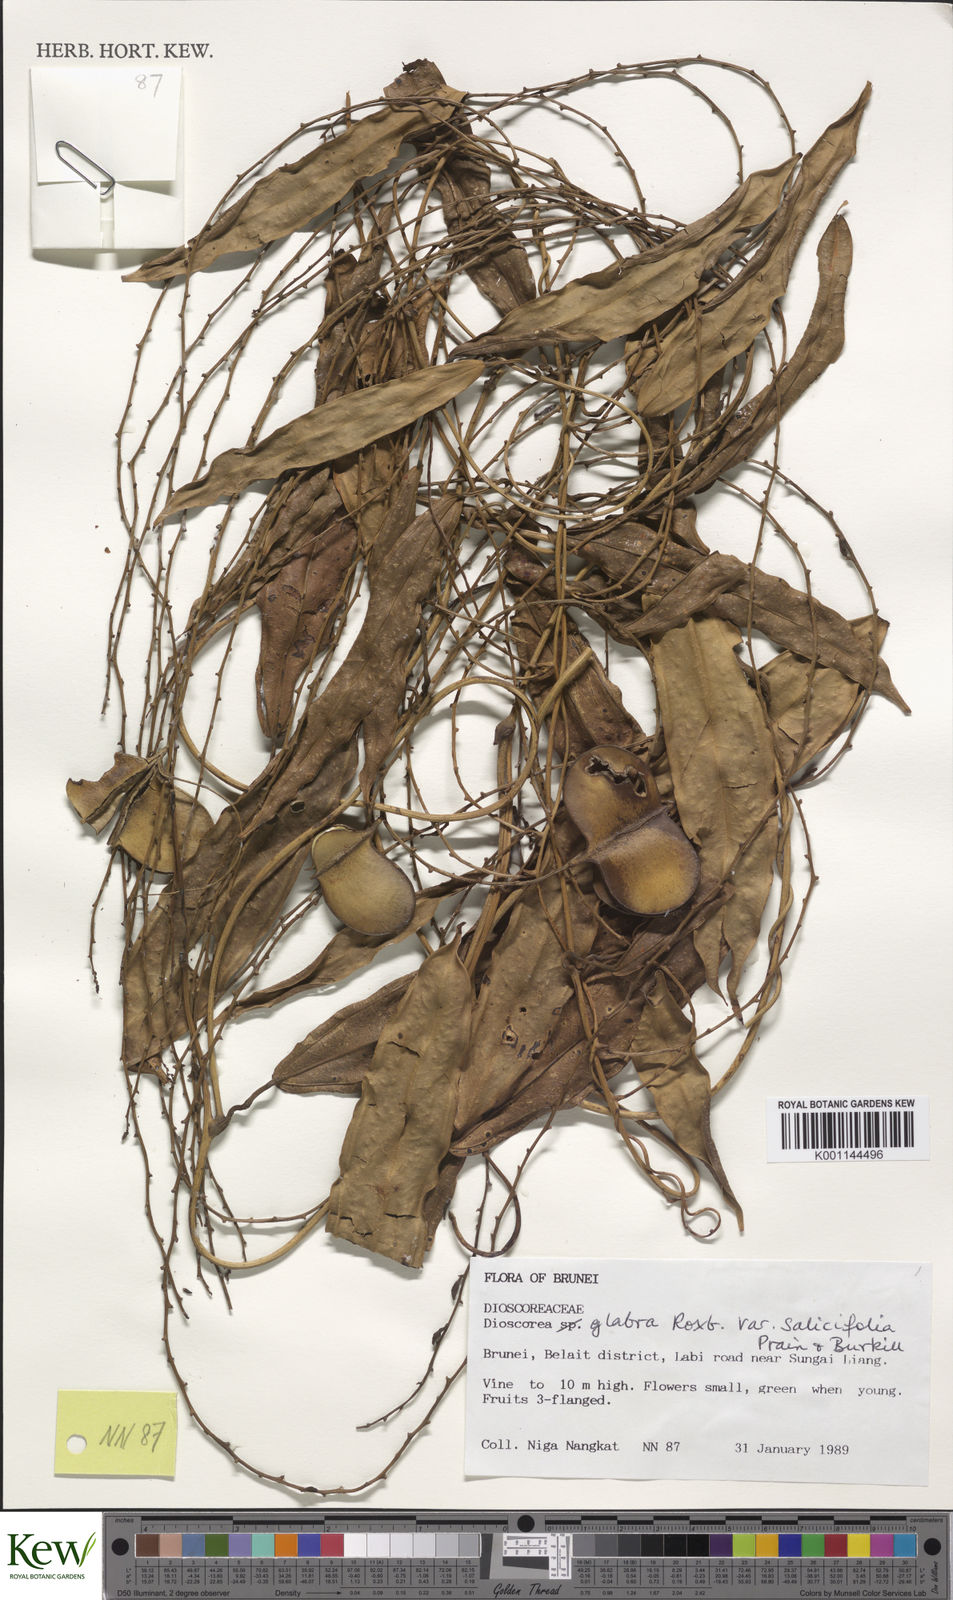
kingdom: Plantae
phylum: Tracheophyta
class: Liliopsida
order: Dioscoreales
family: Dioscoreaceae
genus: Dioscorea
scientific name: Dioscorea salicifolia
